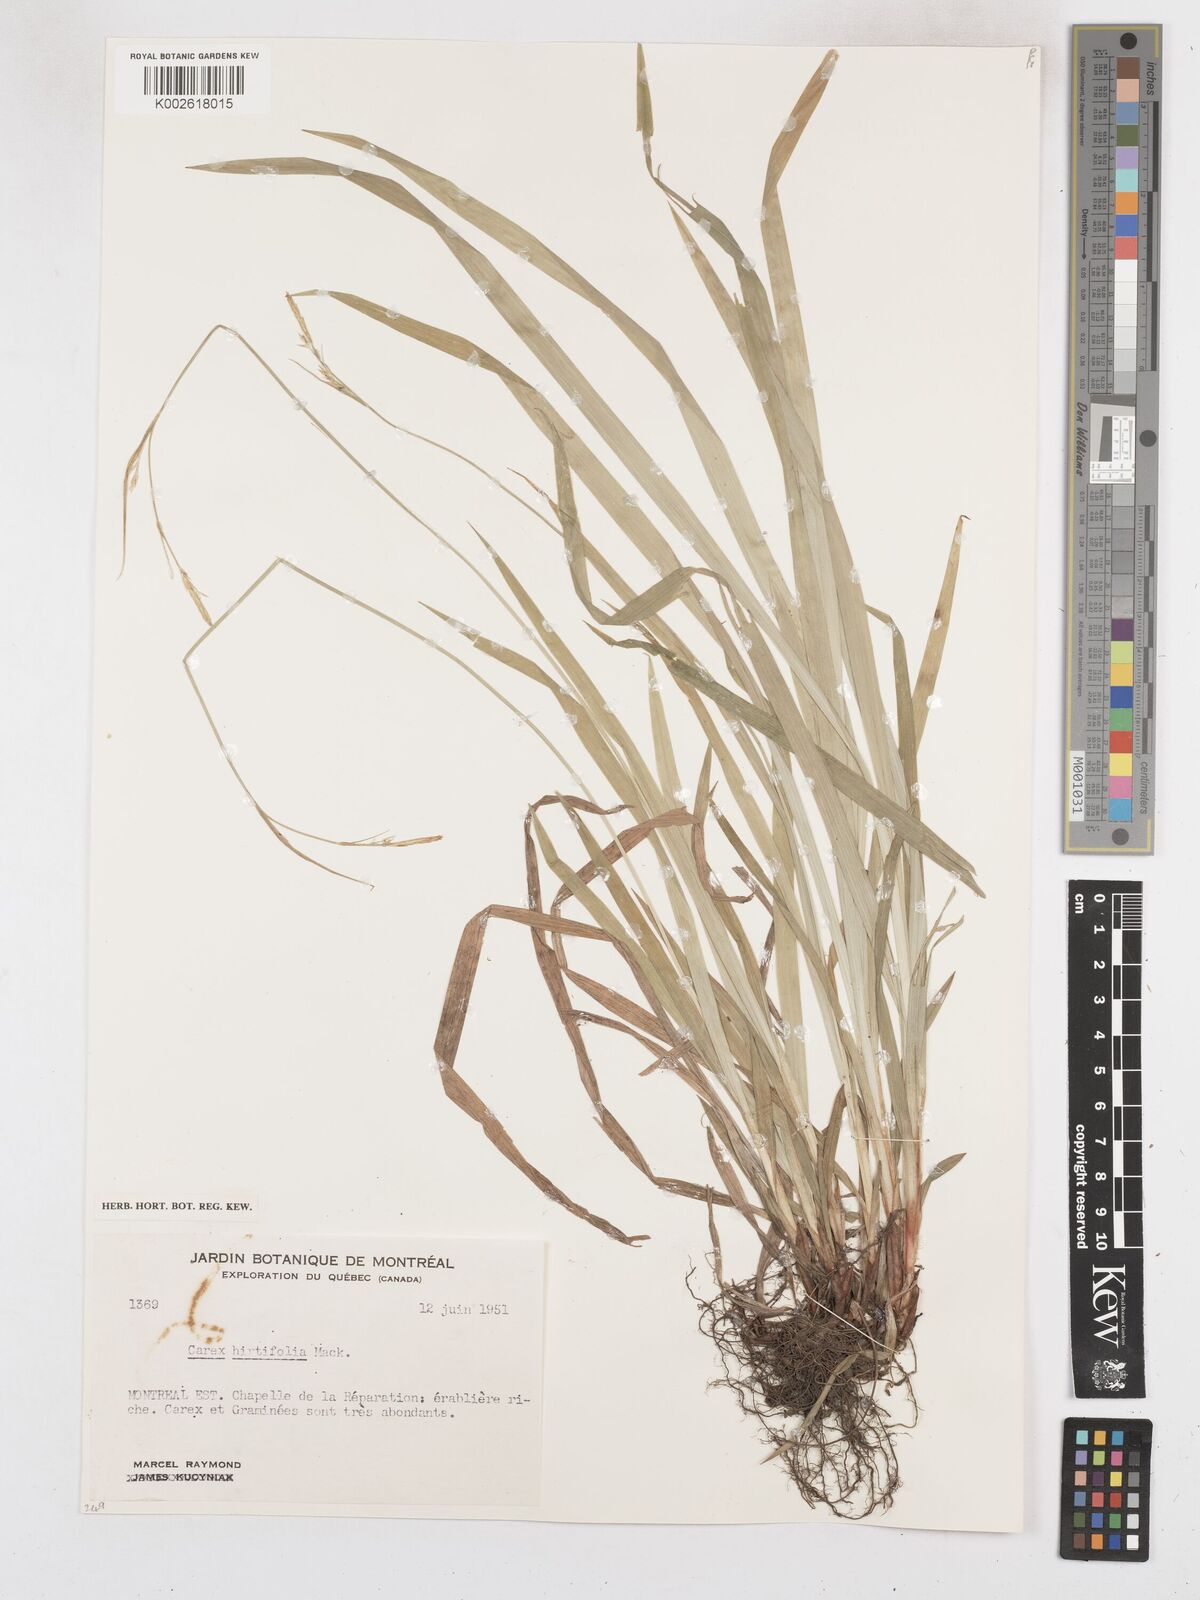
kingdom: Plantae
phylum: Tracheophyta
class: Liliopsida
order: Poales
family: Cyperaceae
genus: Carex
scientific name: Carex hirtifolia
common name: Hairy sedge
